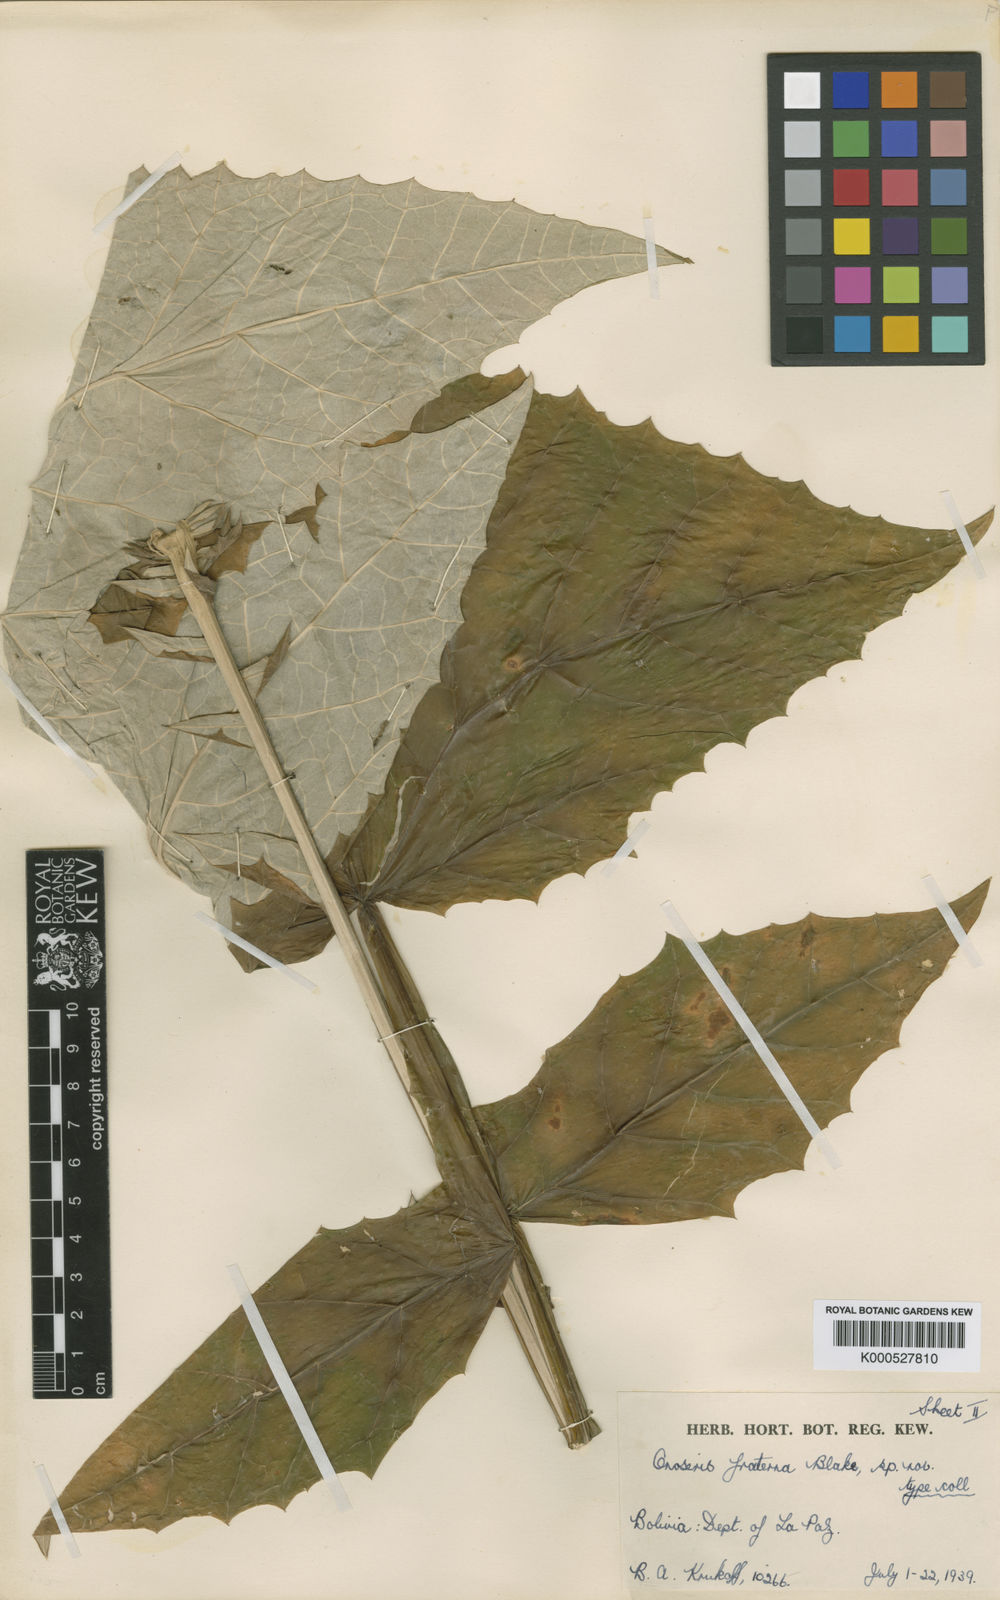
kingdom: Plantae
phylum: Tracheophyta
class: Magnoliopsida
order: Asterales
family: Asteraceae
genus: Onoseris
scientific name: Onoseris fraterna
